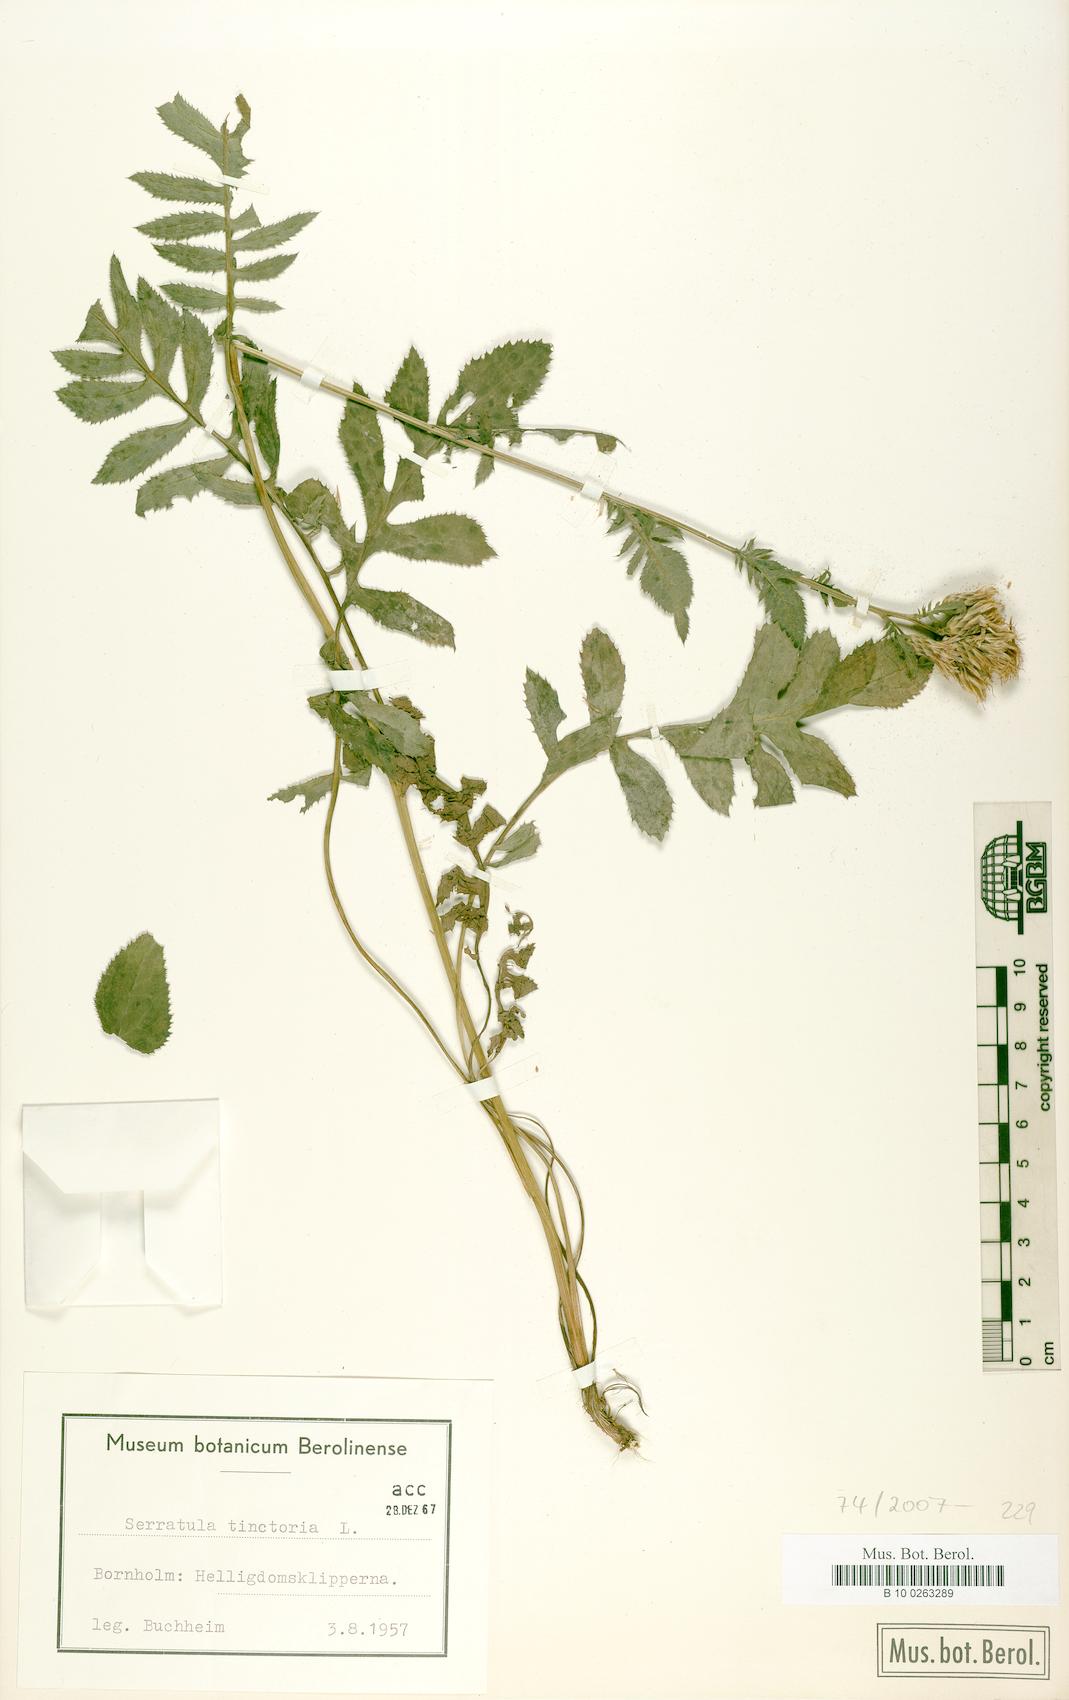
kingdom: Plantae
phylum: Tracheophyta
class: Magnoliopsida
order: Asterales
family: Asteraceae
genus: Serratula
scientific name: Serratula tinctoria
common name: Saw-wort
